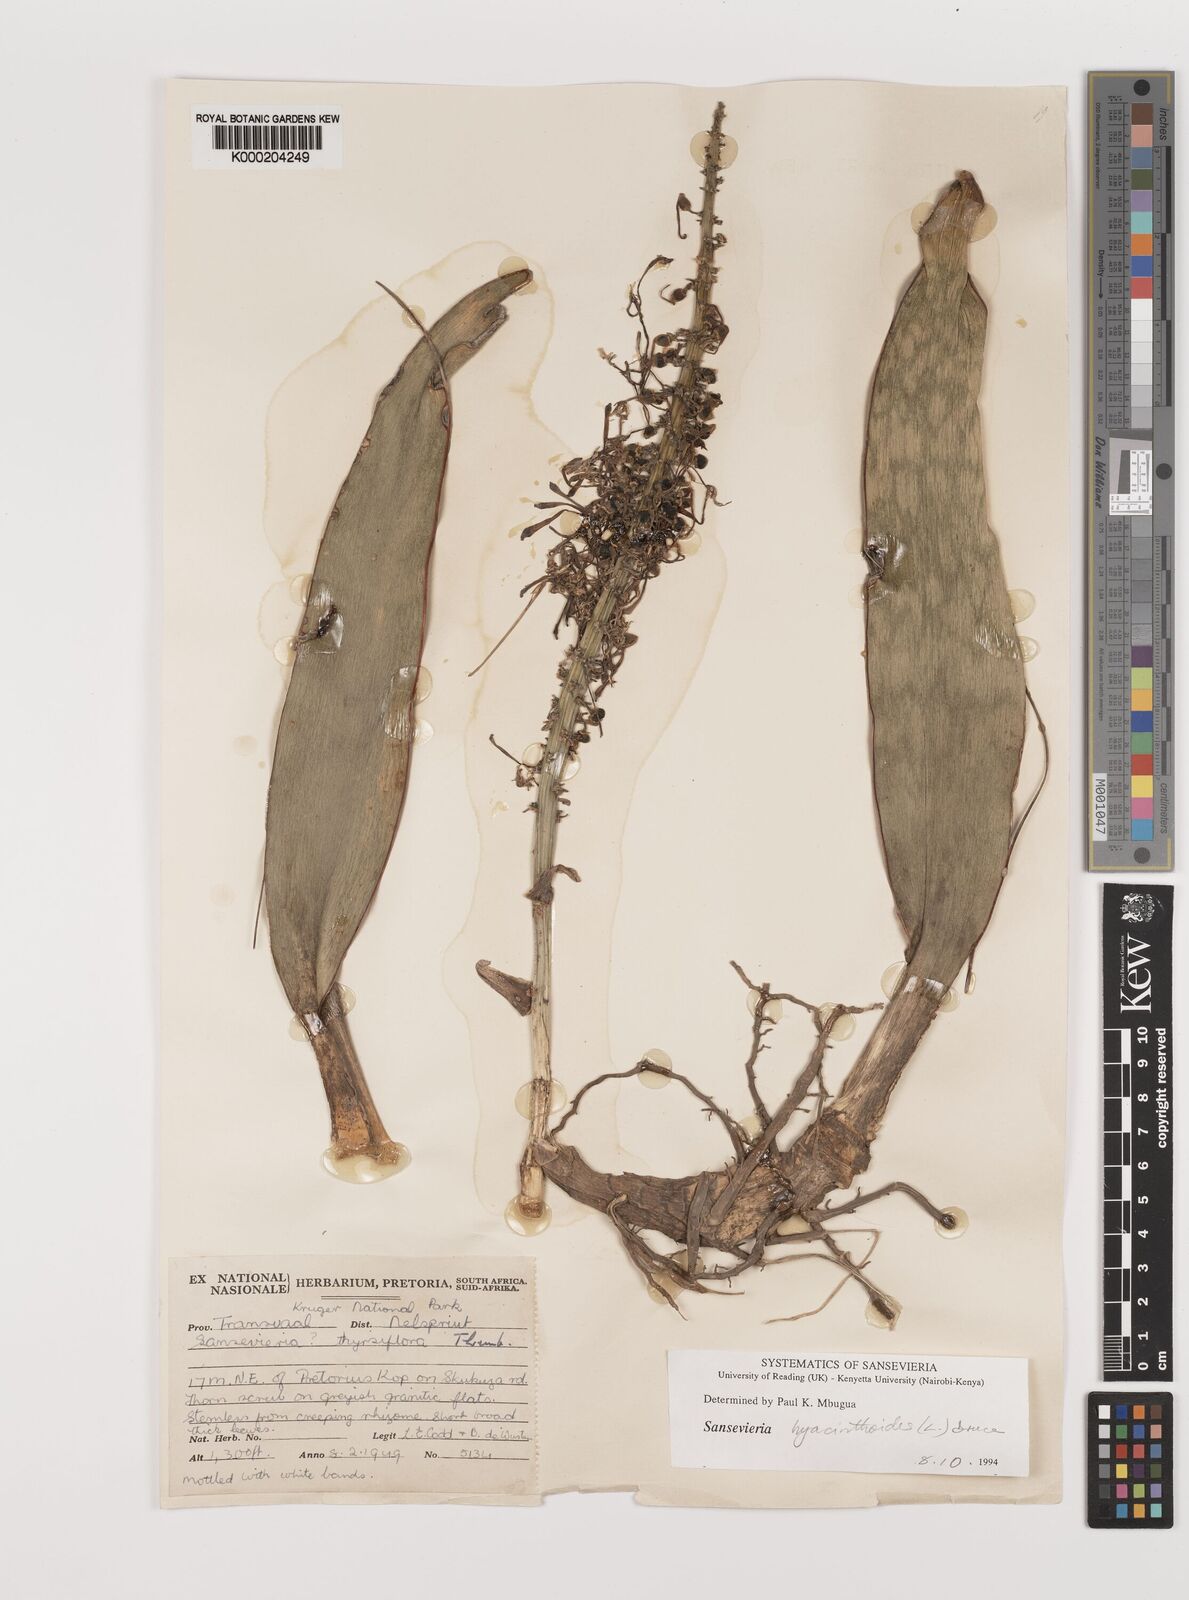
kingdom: Plantae
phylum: Tracheophyta
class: Liliopsida
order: Asparagales
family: Asparagaceae
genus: Dracaena
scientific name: Dracaena hyacinthoides
